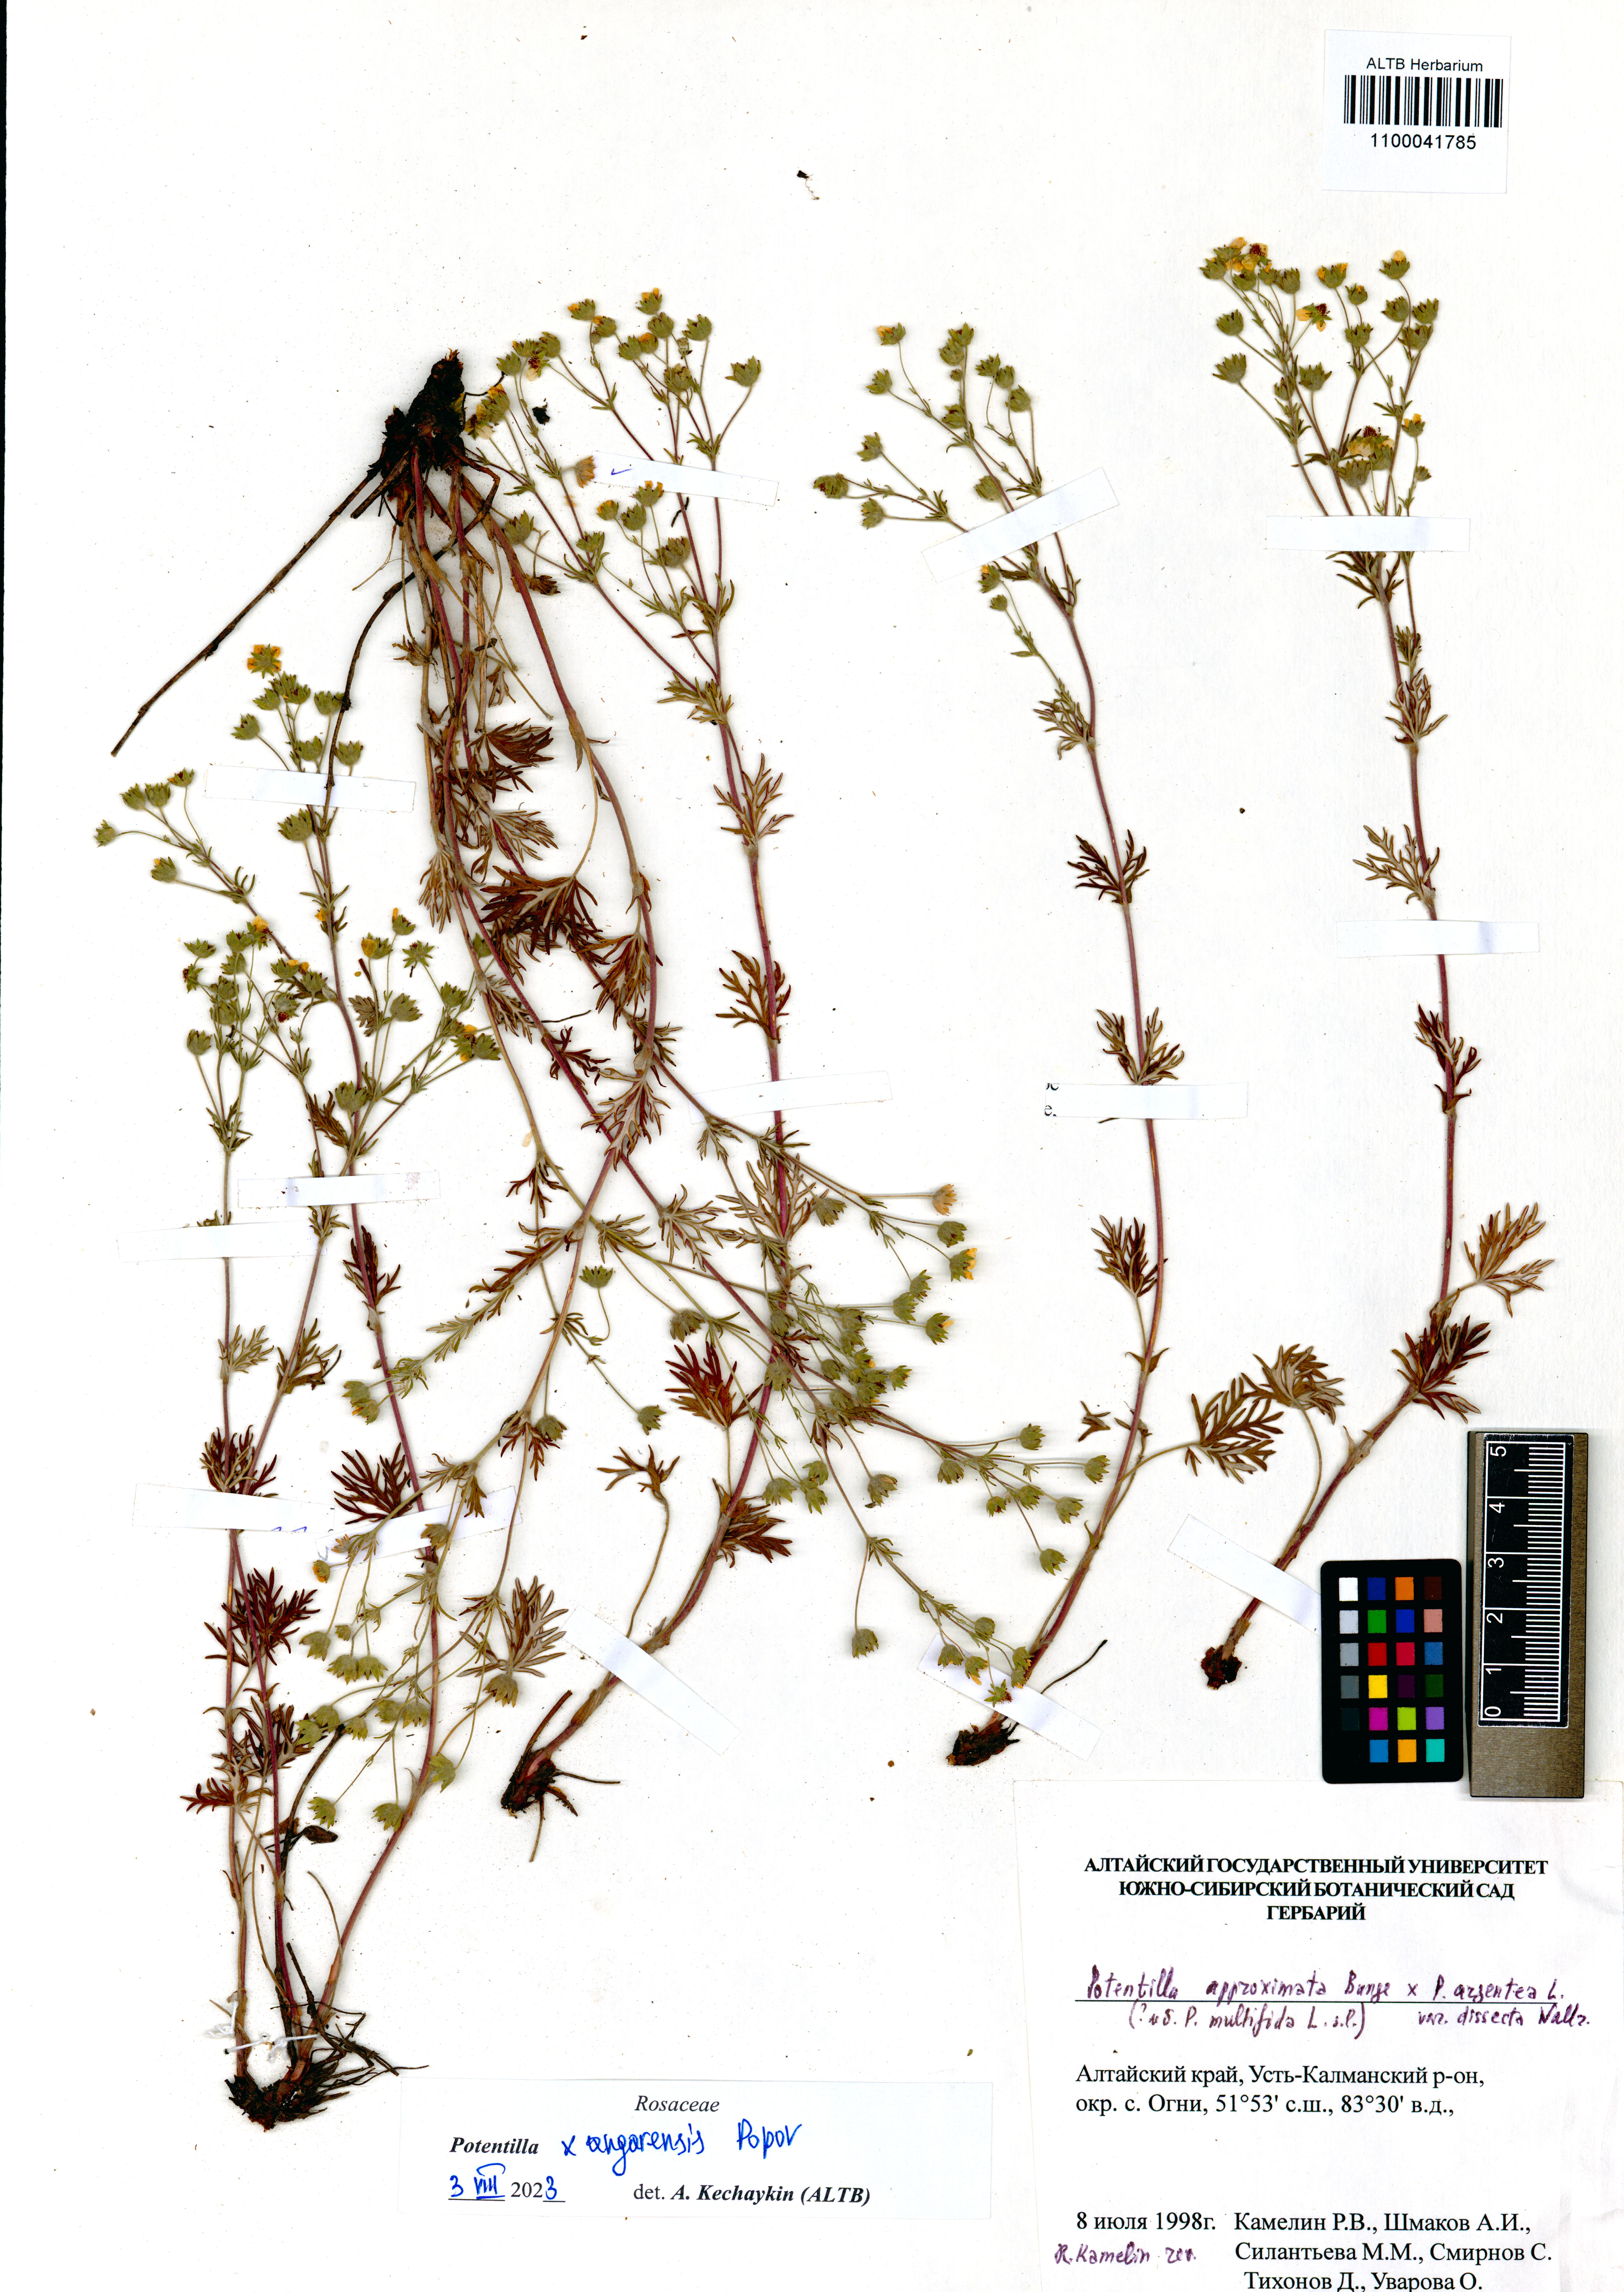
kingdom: Plantae
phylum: Tracheophyta
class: Magnoliopsida
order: Rosales
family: Rosaceae
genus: Potentilla
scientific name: Potentilla angarensis
